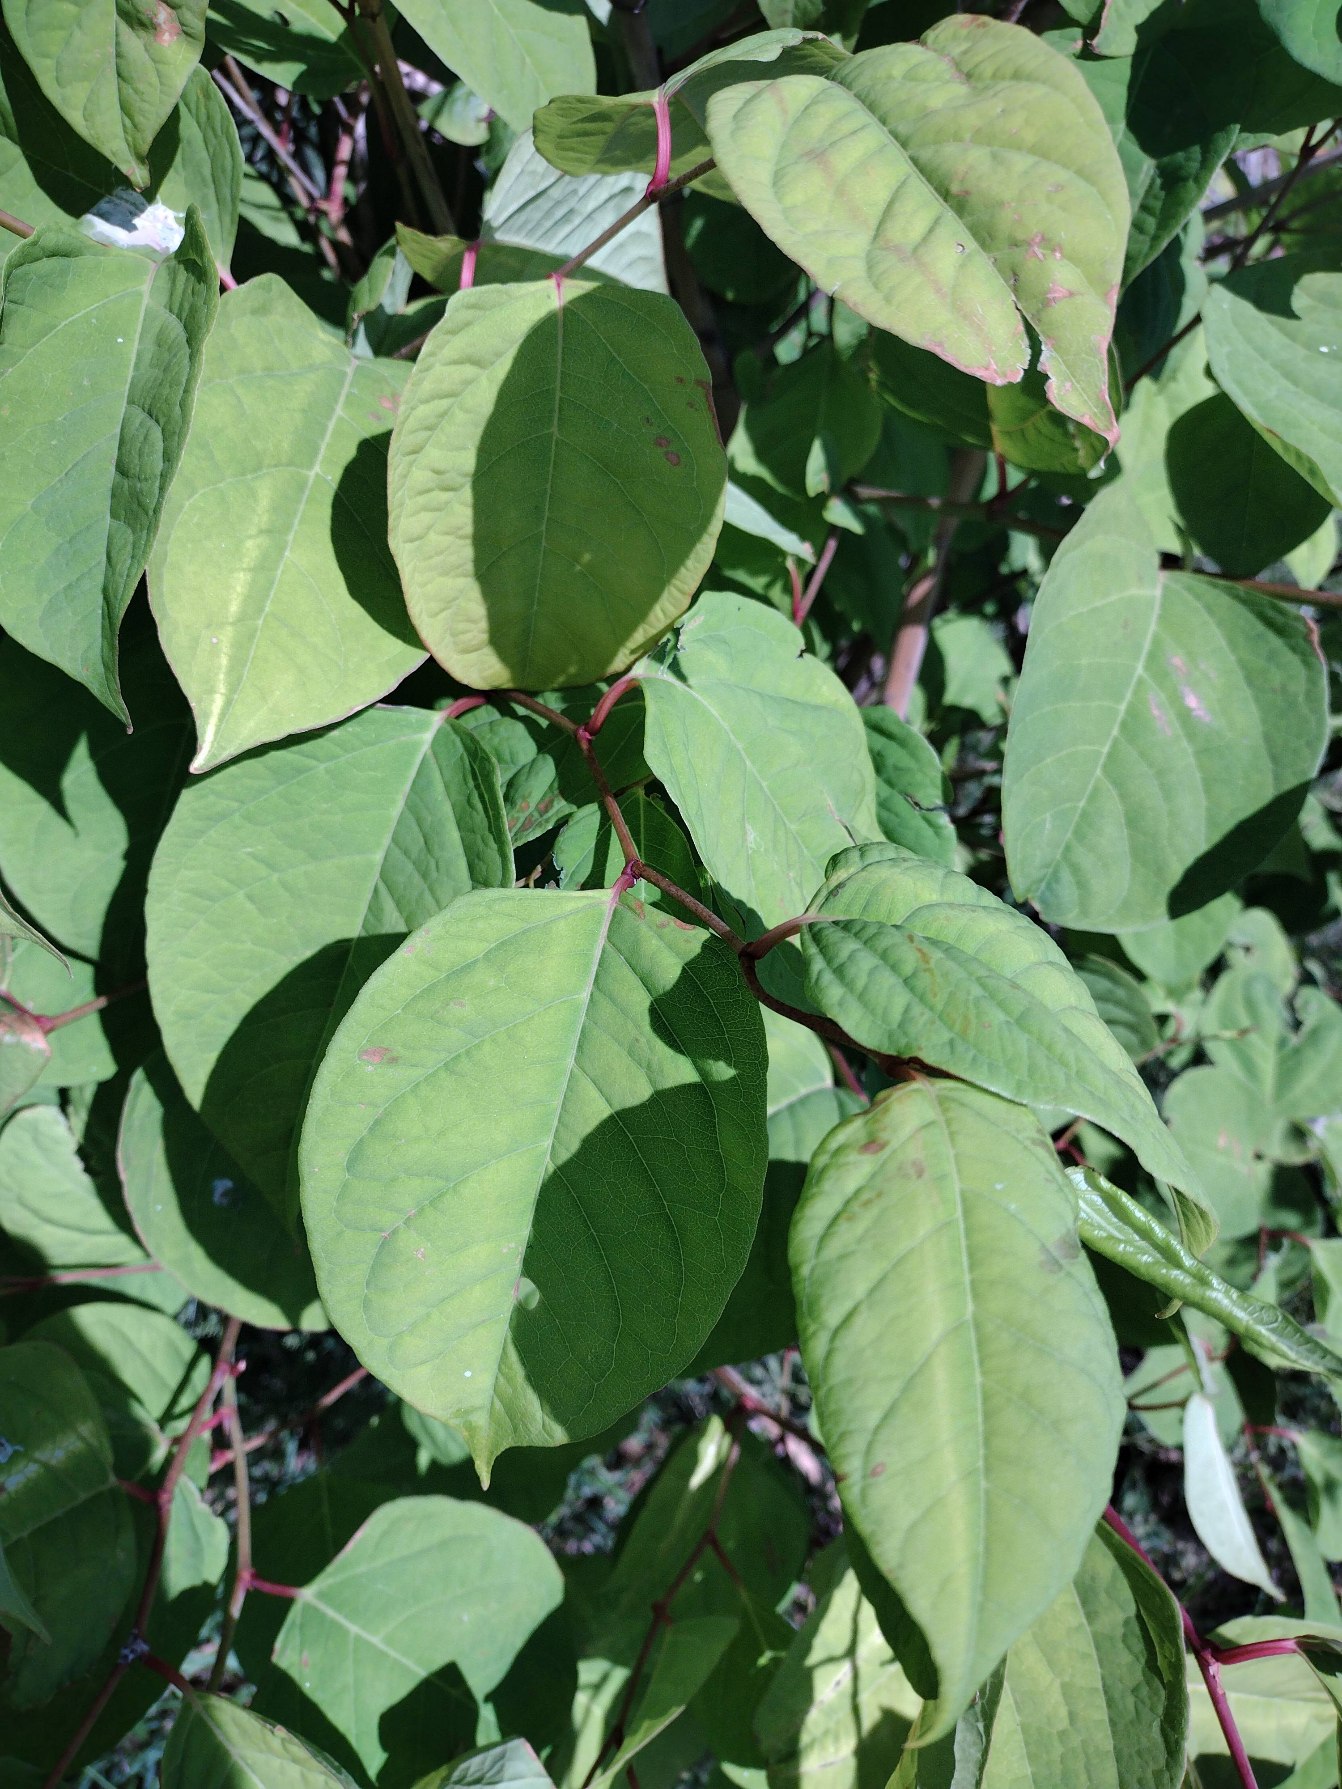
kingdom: Plantae
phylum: Tracheophyta
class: Magnoliopsida
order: Caryophyllales
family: Polygonaceae
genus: Reynoutria
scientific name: Reynoutria japonica
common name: Japan-pileurt
